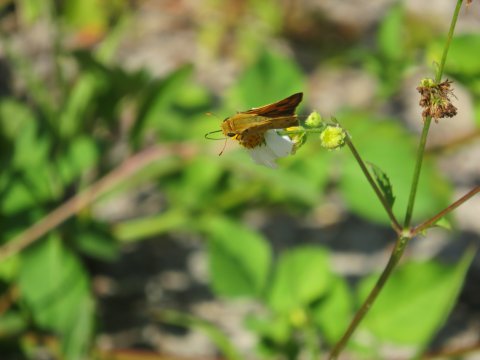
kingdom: Animalia
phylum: Arthropoda
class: Insecta
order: Lepidoptera
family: Hesperiidae
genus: Hylephila
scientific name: Hylephila phyleus
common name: Fiery Skipper
